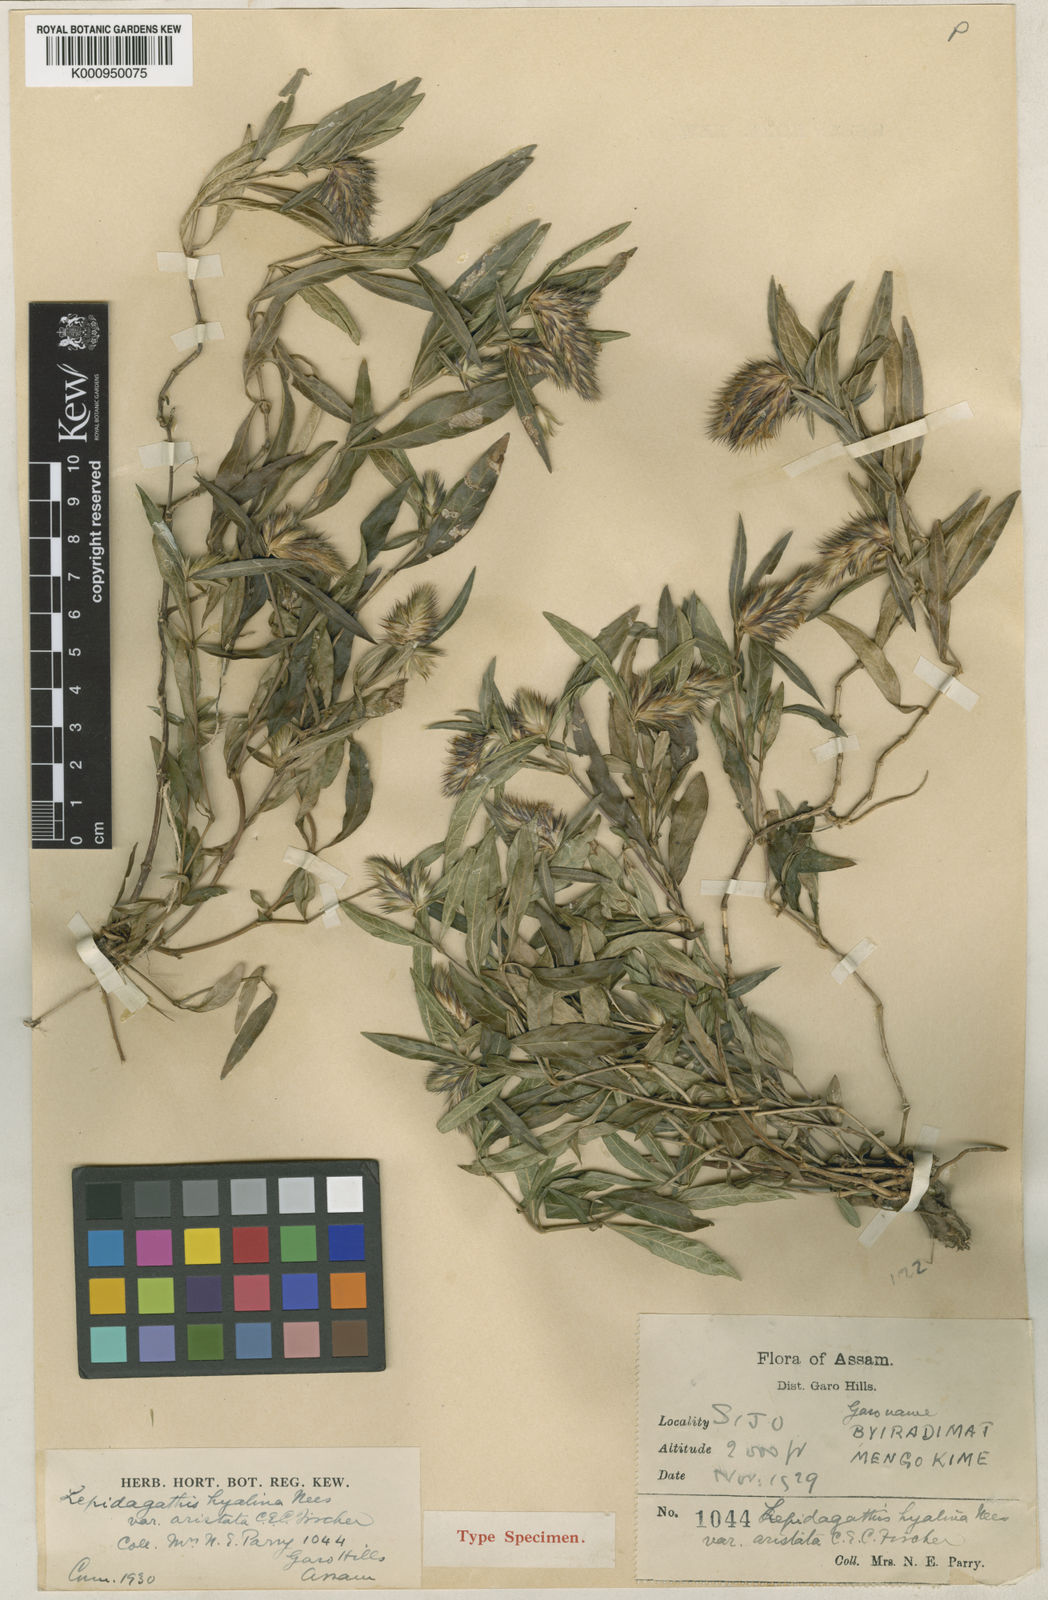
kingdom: Plantae
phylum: Tracheophyta
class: Magnoliopsida
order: Lamiales
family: Acanthaceae
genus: Lepidagathis
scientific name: Lepidagathis incurva
